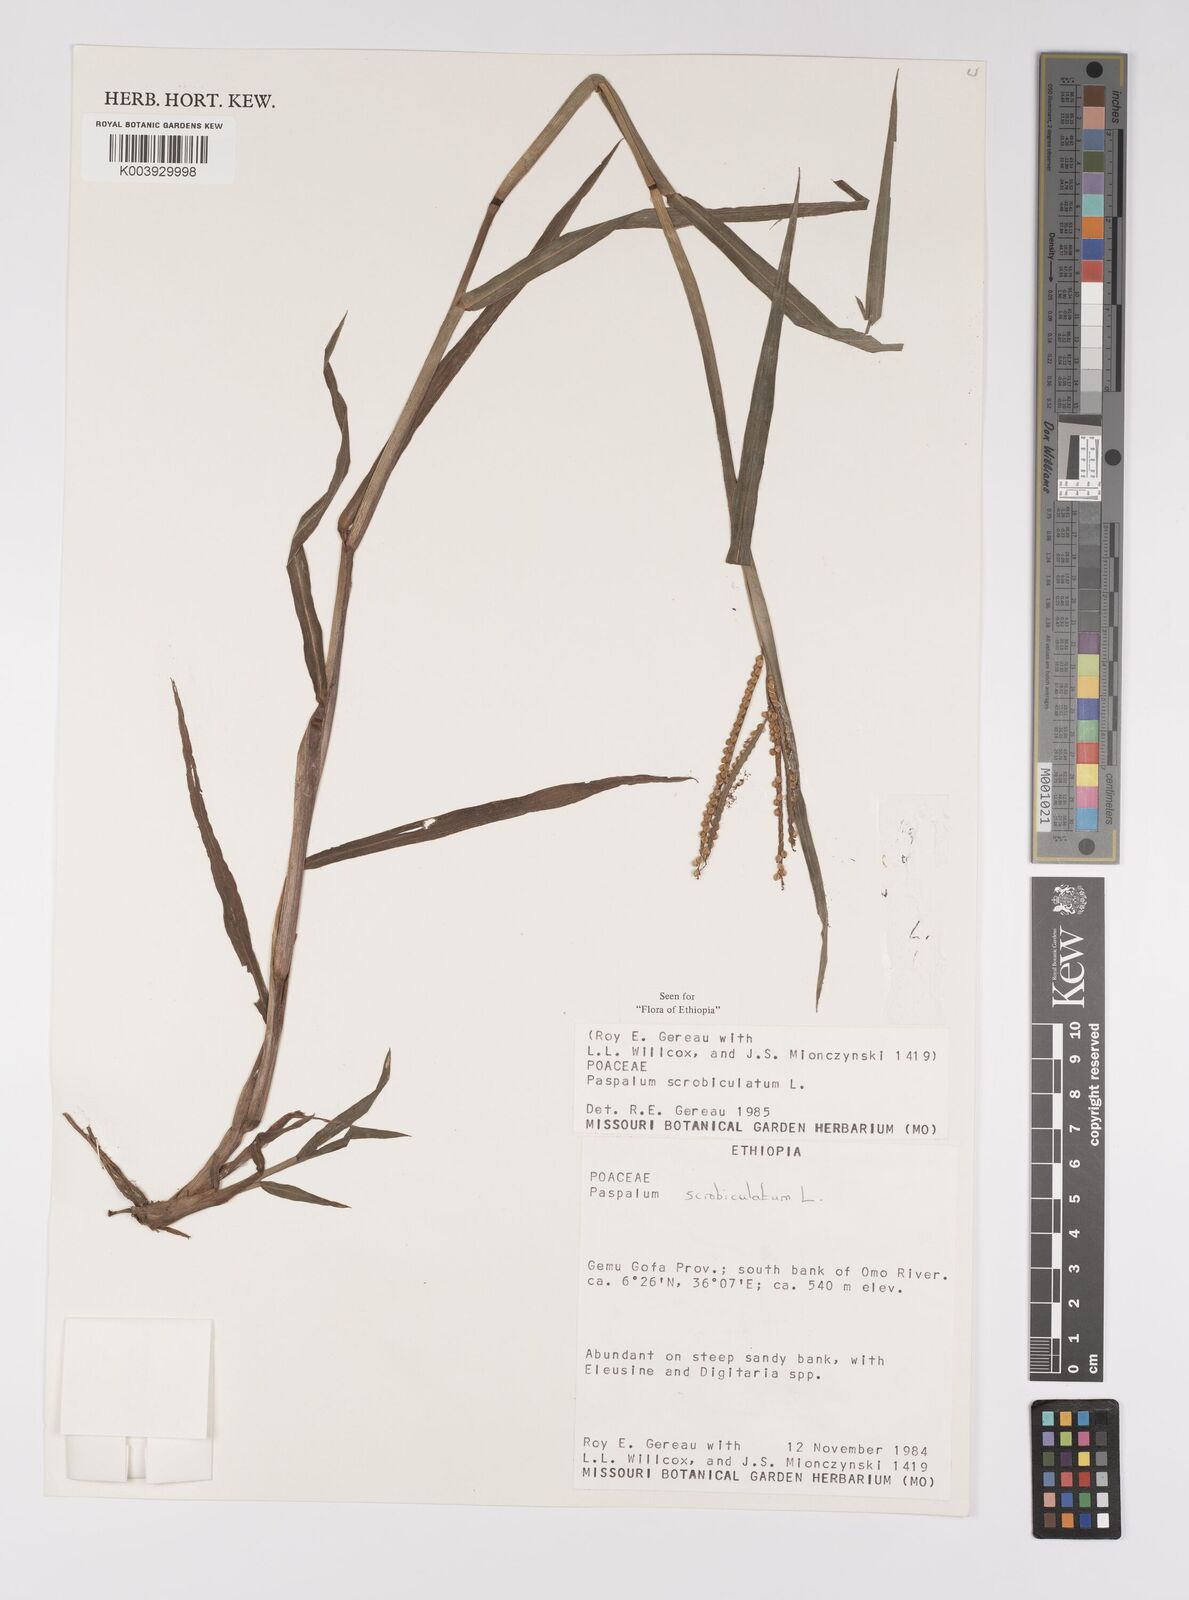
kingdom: Plantae
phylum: Tracheophyta
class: Liliopsida
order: Poales
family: Poaceae
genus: Paspalum
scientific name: Paspalum scrobiculatum
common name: Kodo millet
